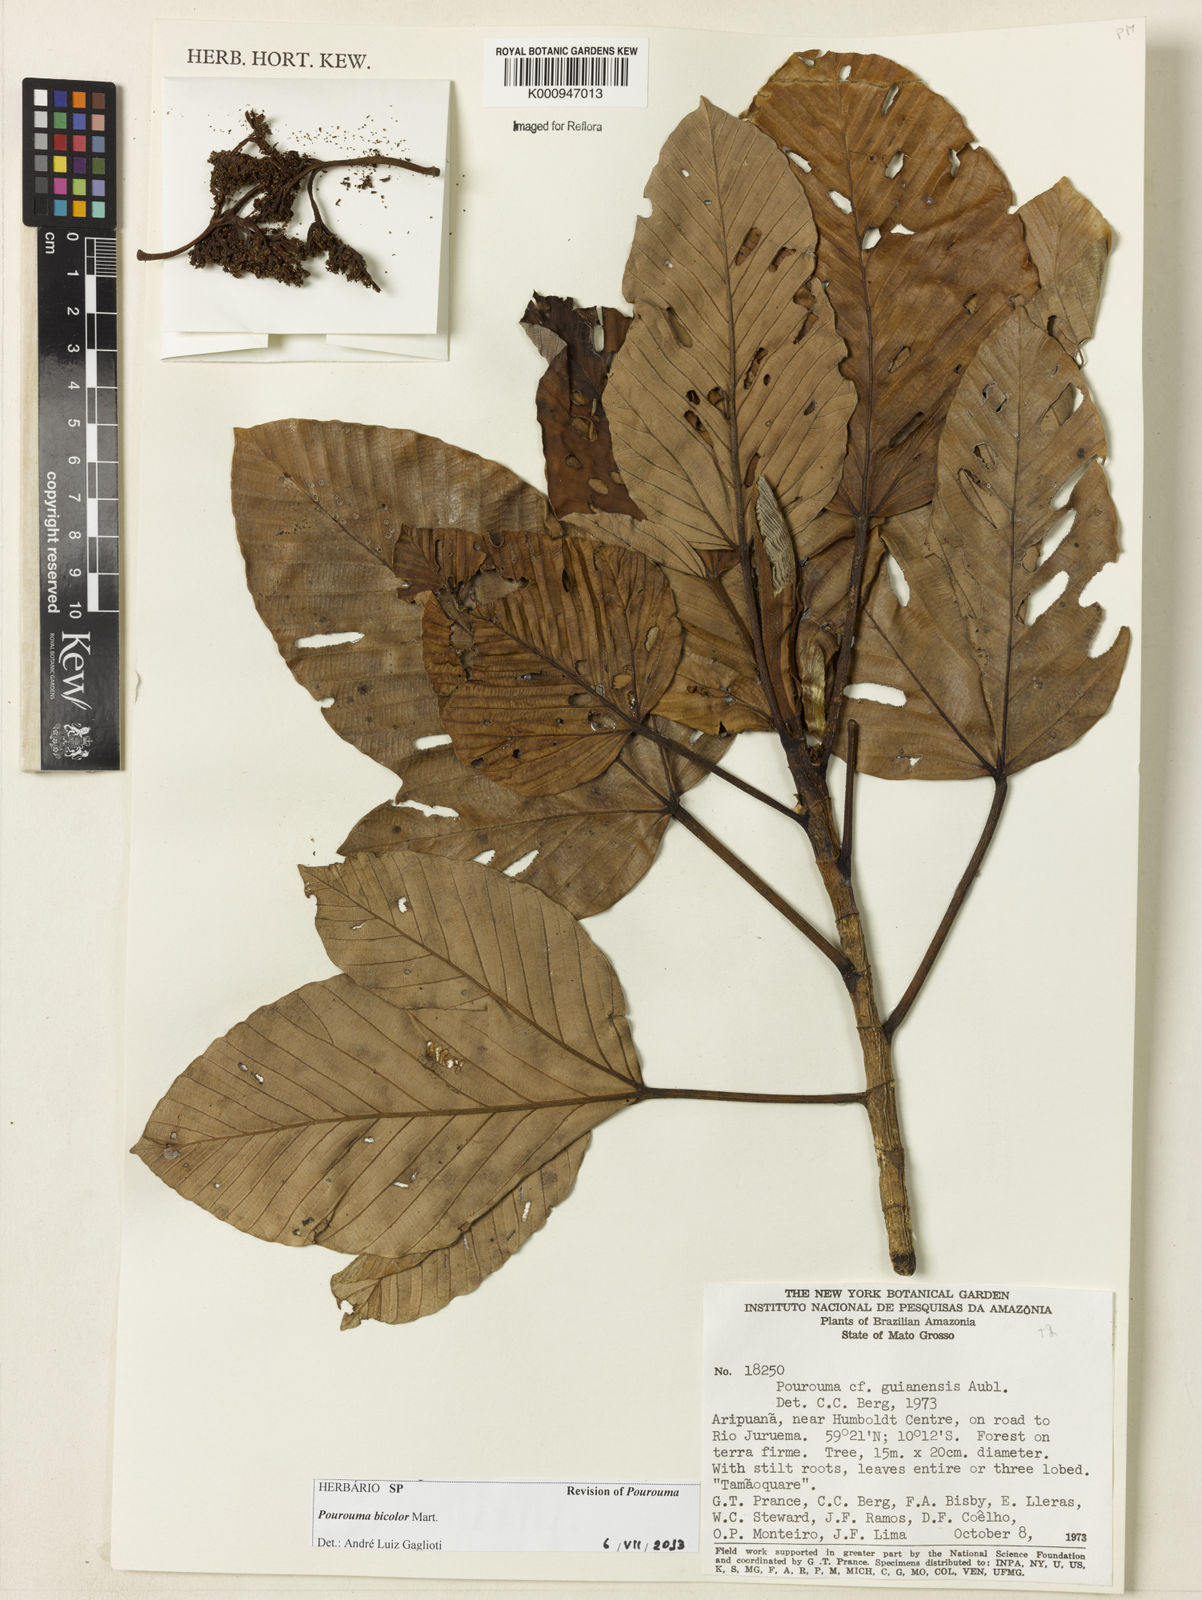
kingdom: Plantae
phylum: Tracheophyta
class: Magnoliopsida
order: Rosales
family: Urticaceae
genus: Pourouma
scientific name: Pourouma bicolor
